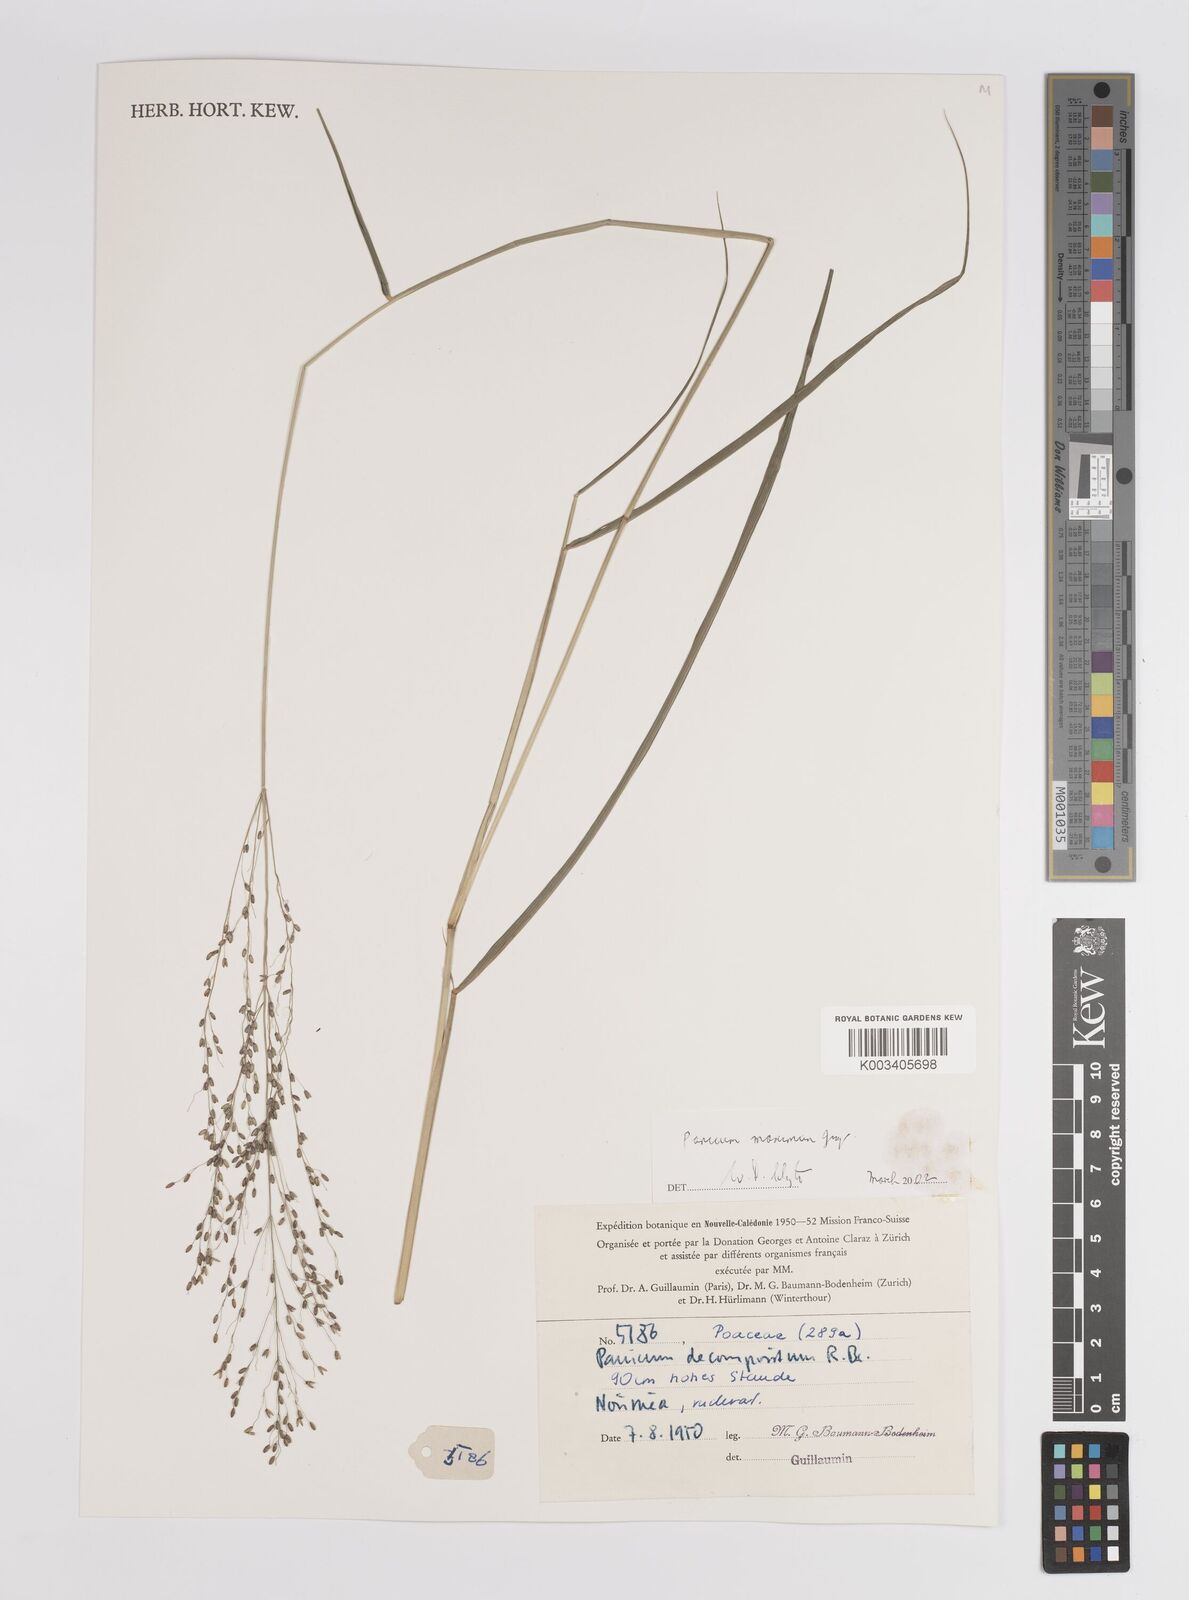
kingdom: Plantae
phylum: Tracheophyta
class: Liliopsida
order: Poales
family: Poaceae
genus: Megathyrsus
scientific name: Megathyrsus maximus
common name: Guineagrass
